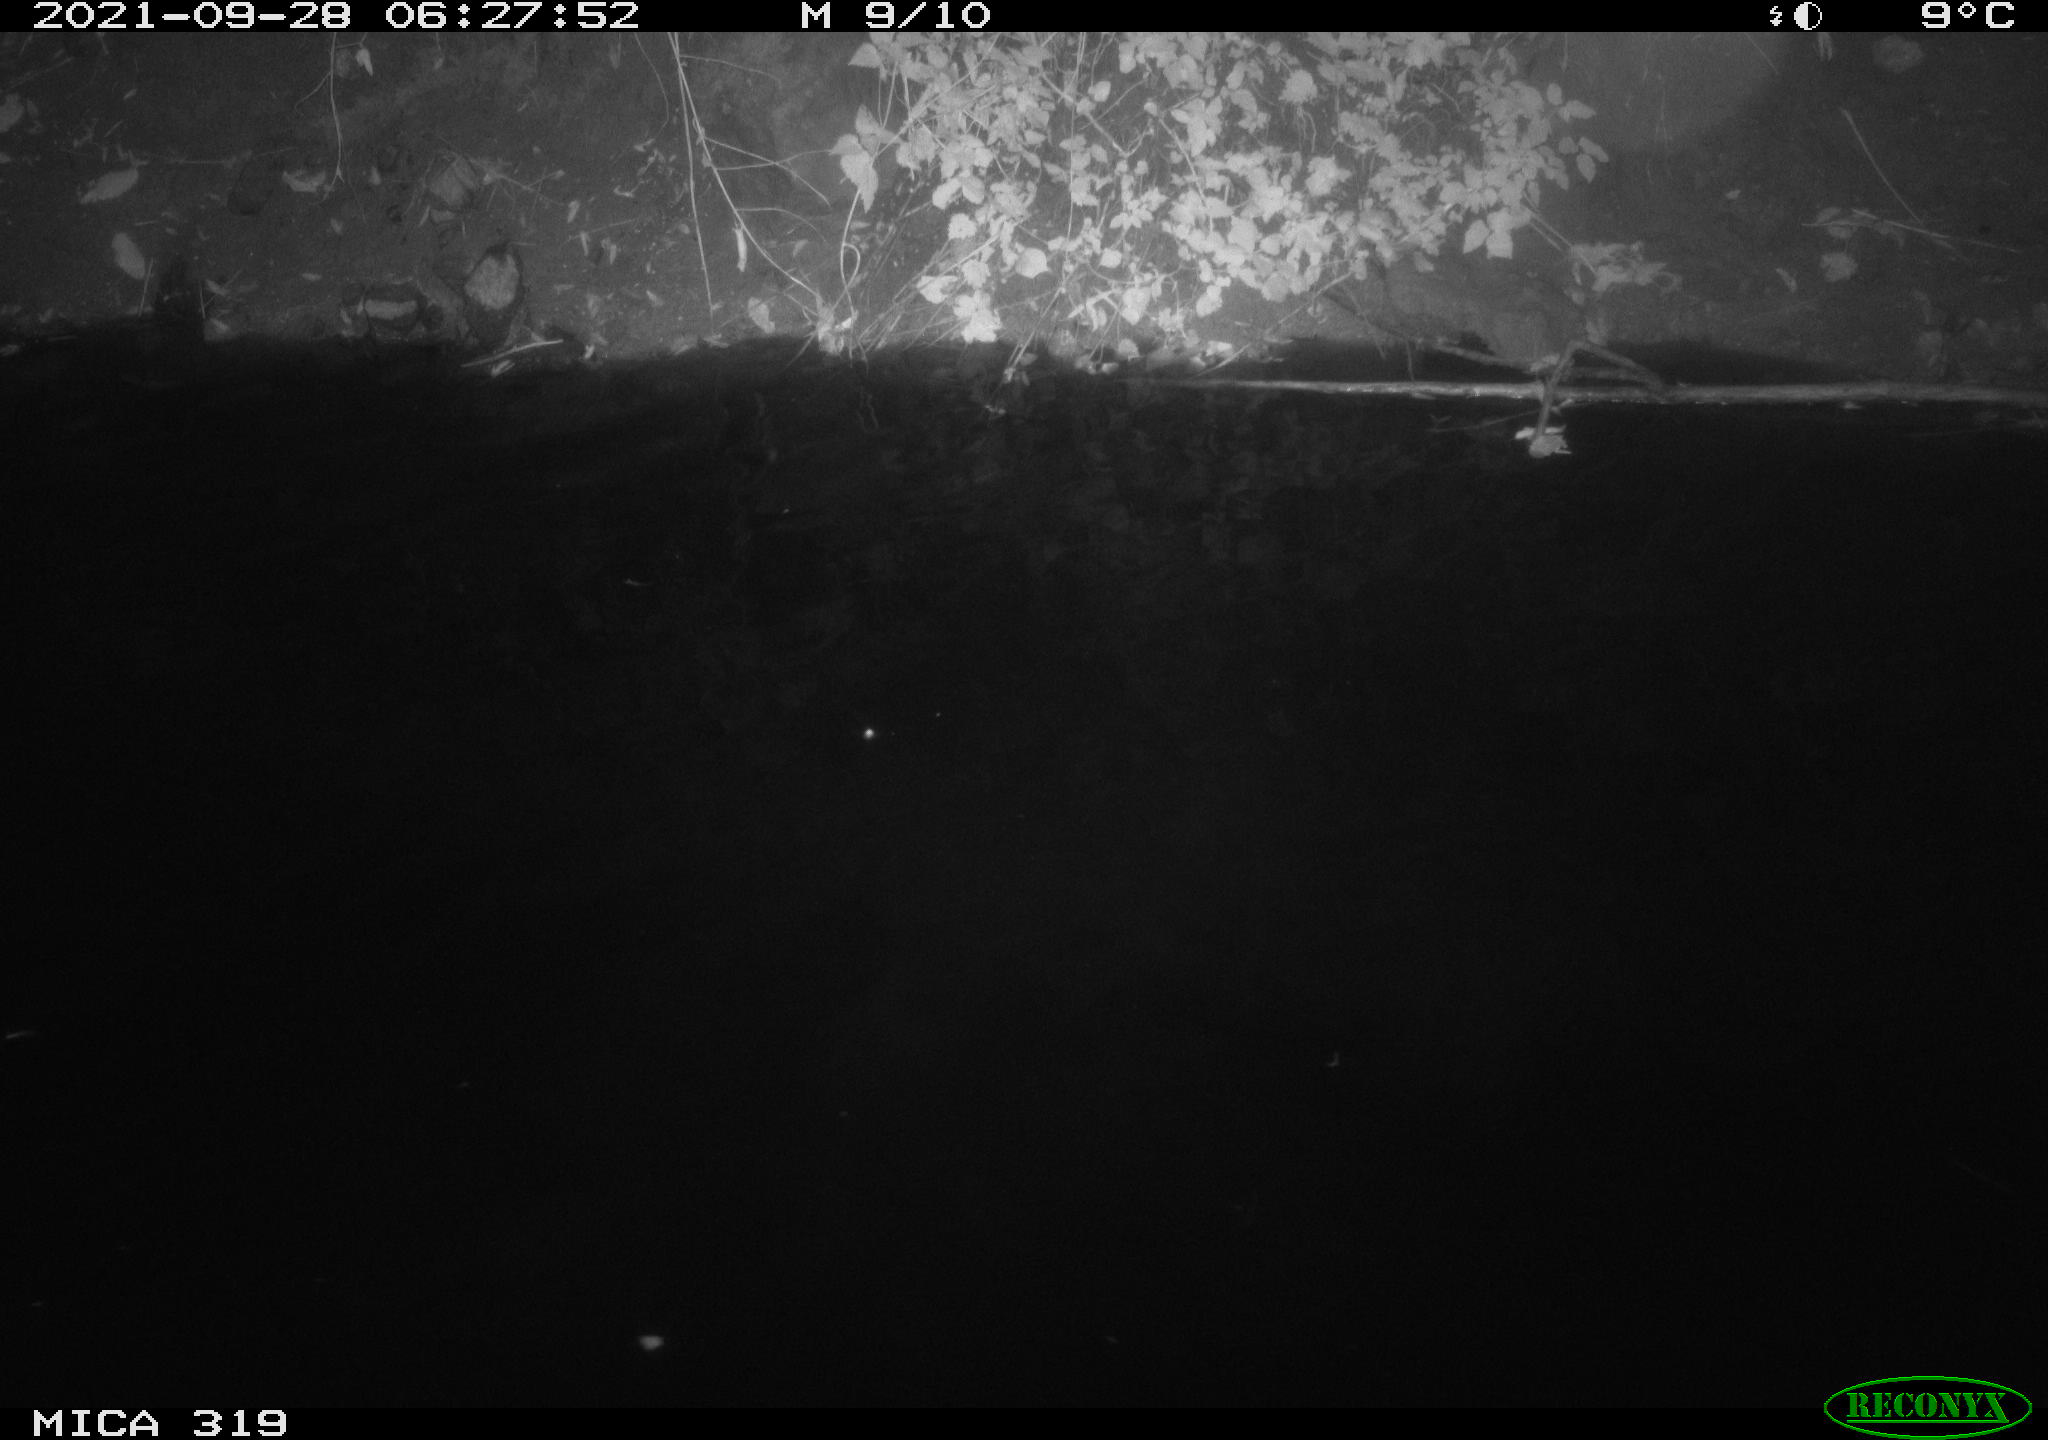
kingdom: Animalia
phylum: Chordata
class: Aves
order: Anseriformes
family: Anatidae
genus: Anas
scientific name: Anas platyrhynchos
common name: Mallard
